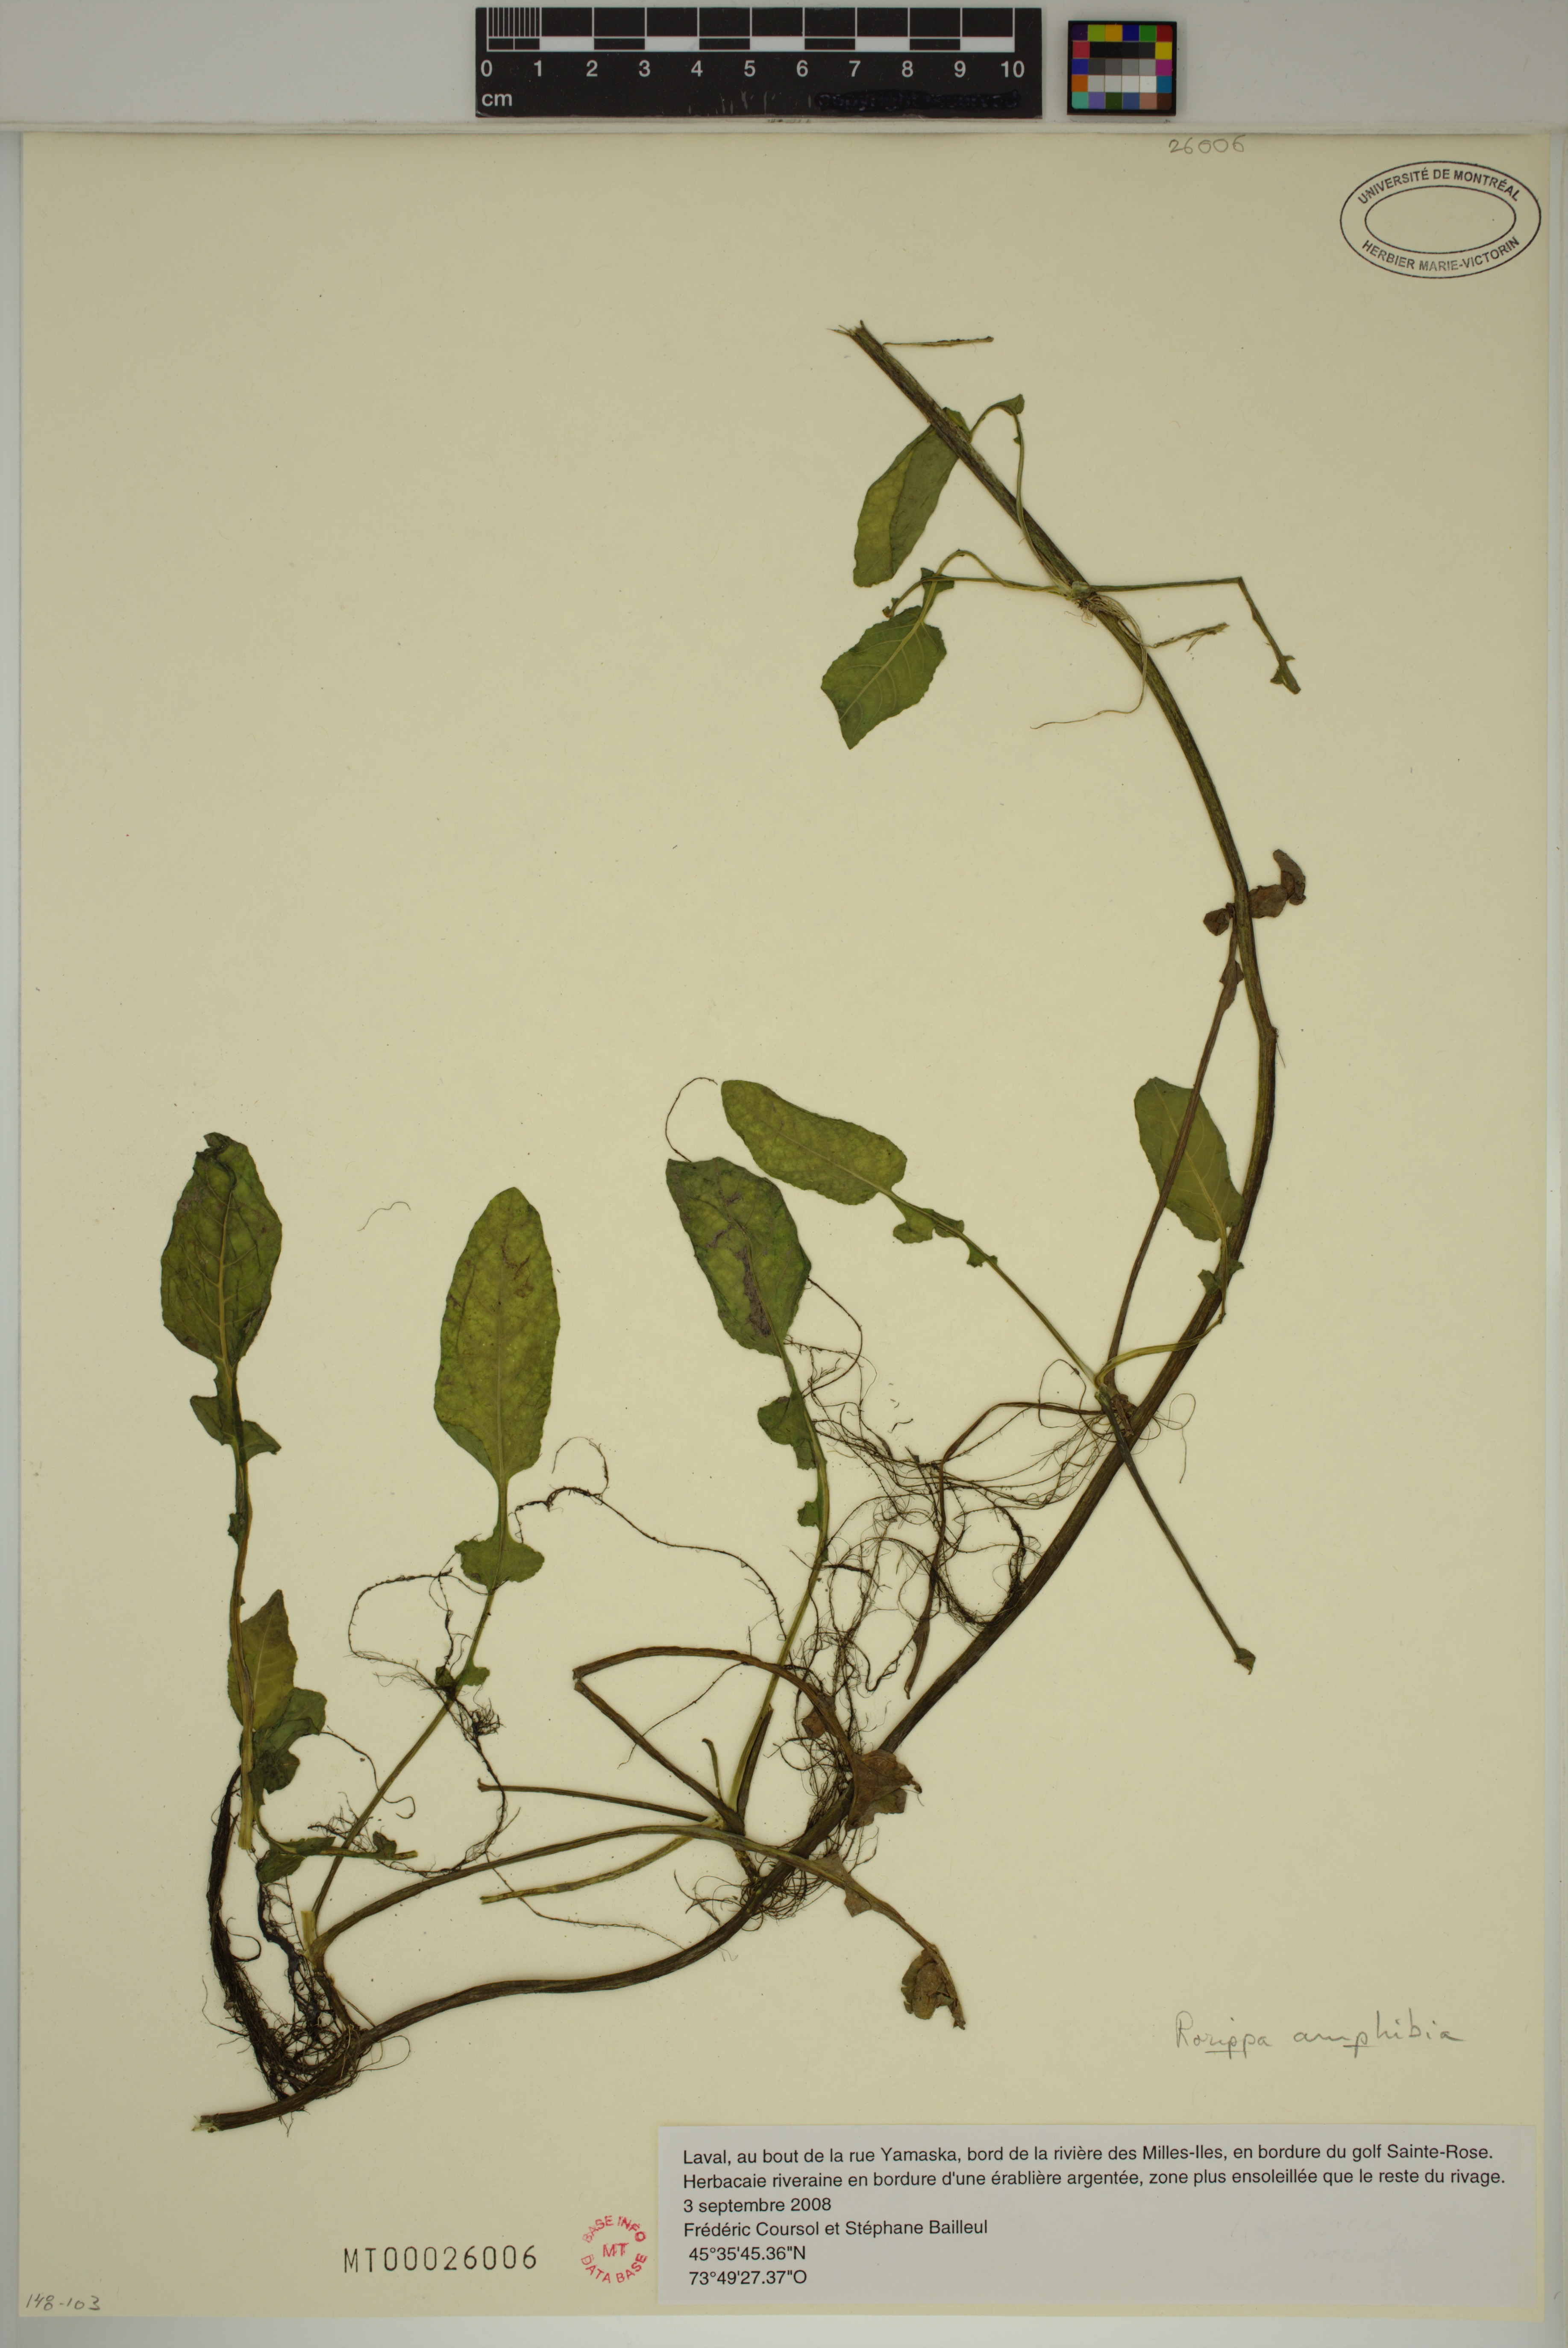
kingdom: Plantae
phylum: Tracheophyta
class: Magnoliopsida
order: Brassicales
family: Brassicaceae
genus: Rorippa
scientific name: Rorippa amphibia
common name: Great yellow-cress
